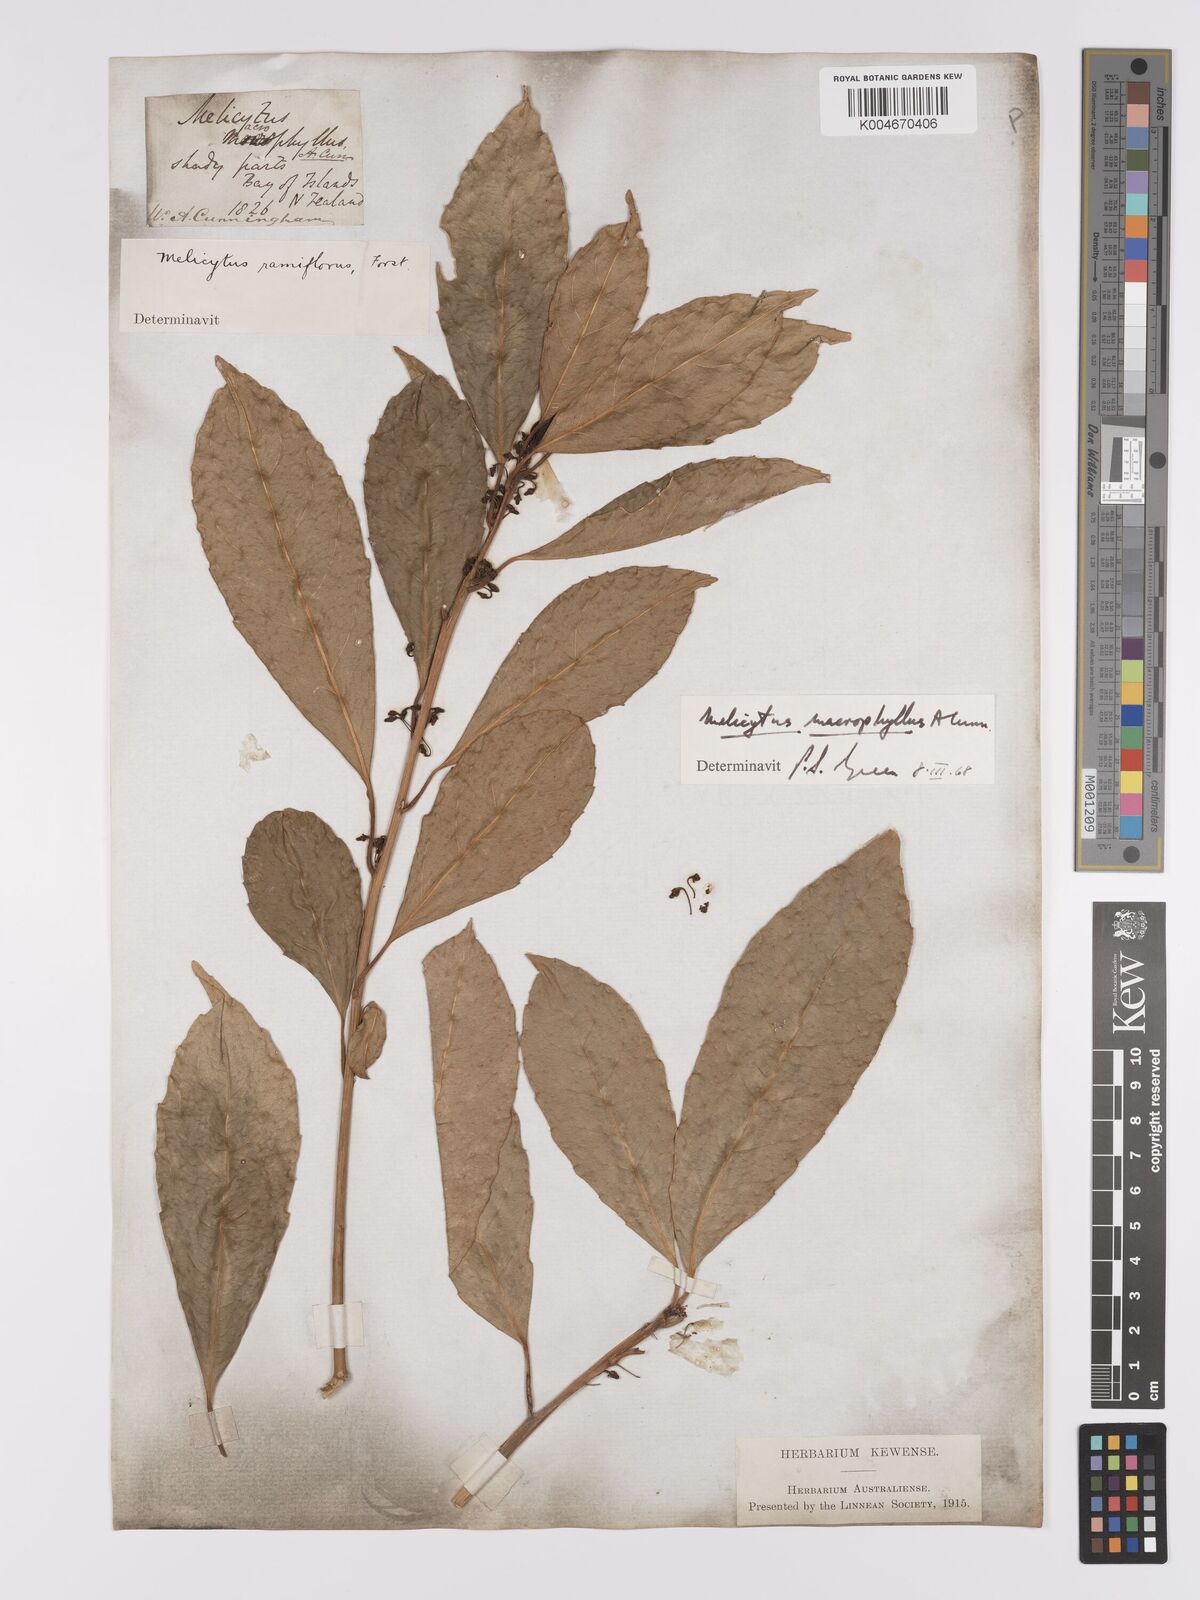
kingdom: Plantae
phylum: Tracheophyta
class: Magnoliopsida
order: Malpighiales
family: Violaceae
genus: Melicytus
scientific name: Melicytus macrophyllus
